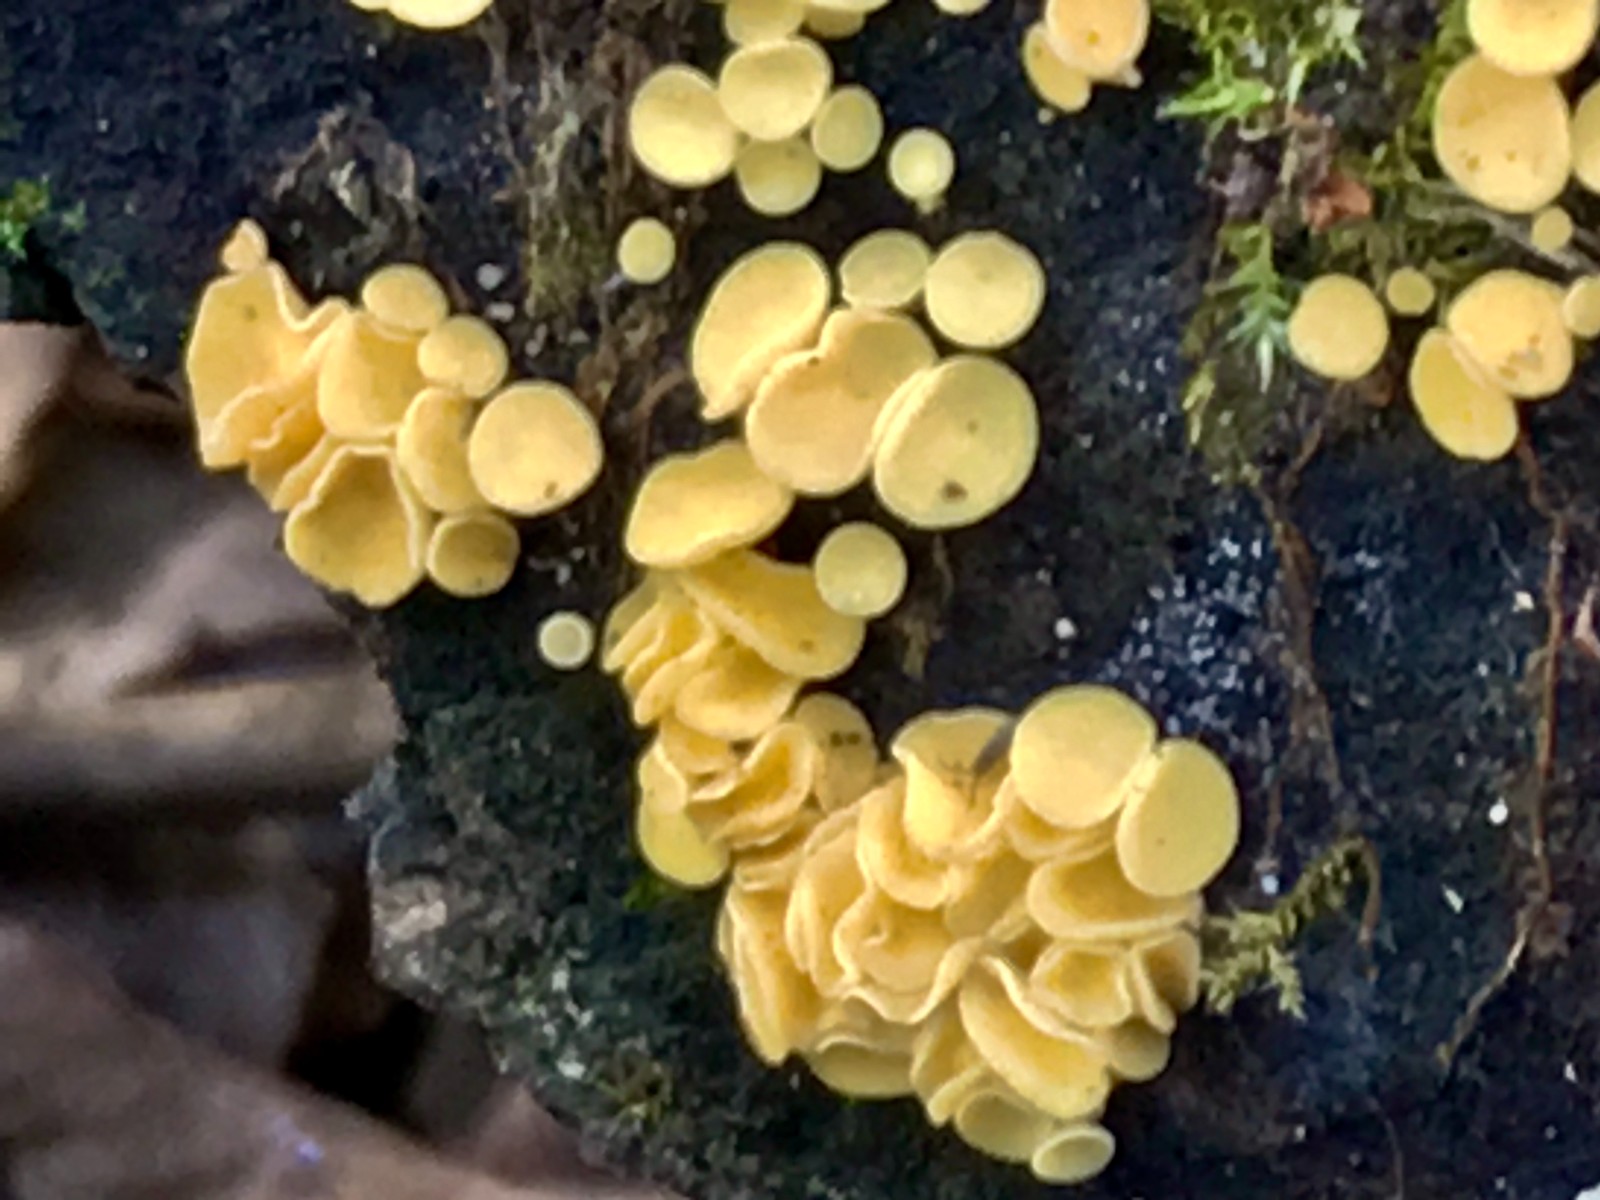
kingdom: Fungi
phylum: Ascomycota
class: Leotiomycetes
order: Helotiales
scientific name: Helotiales
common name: stilkskiveordenen
